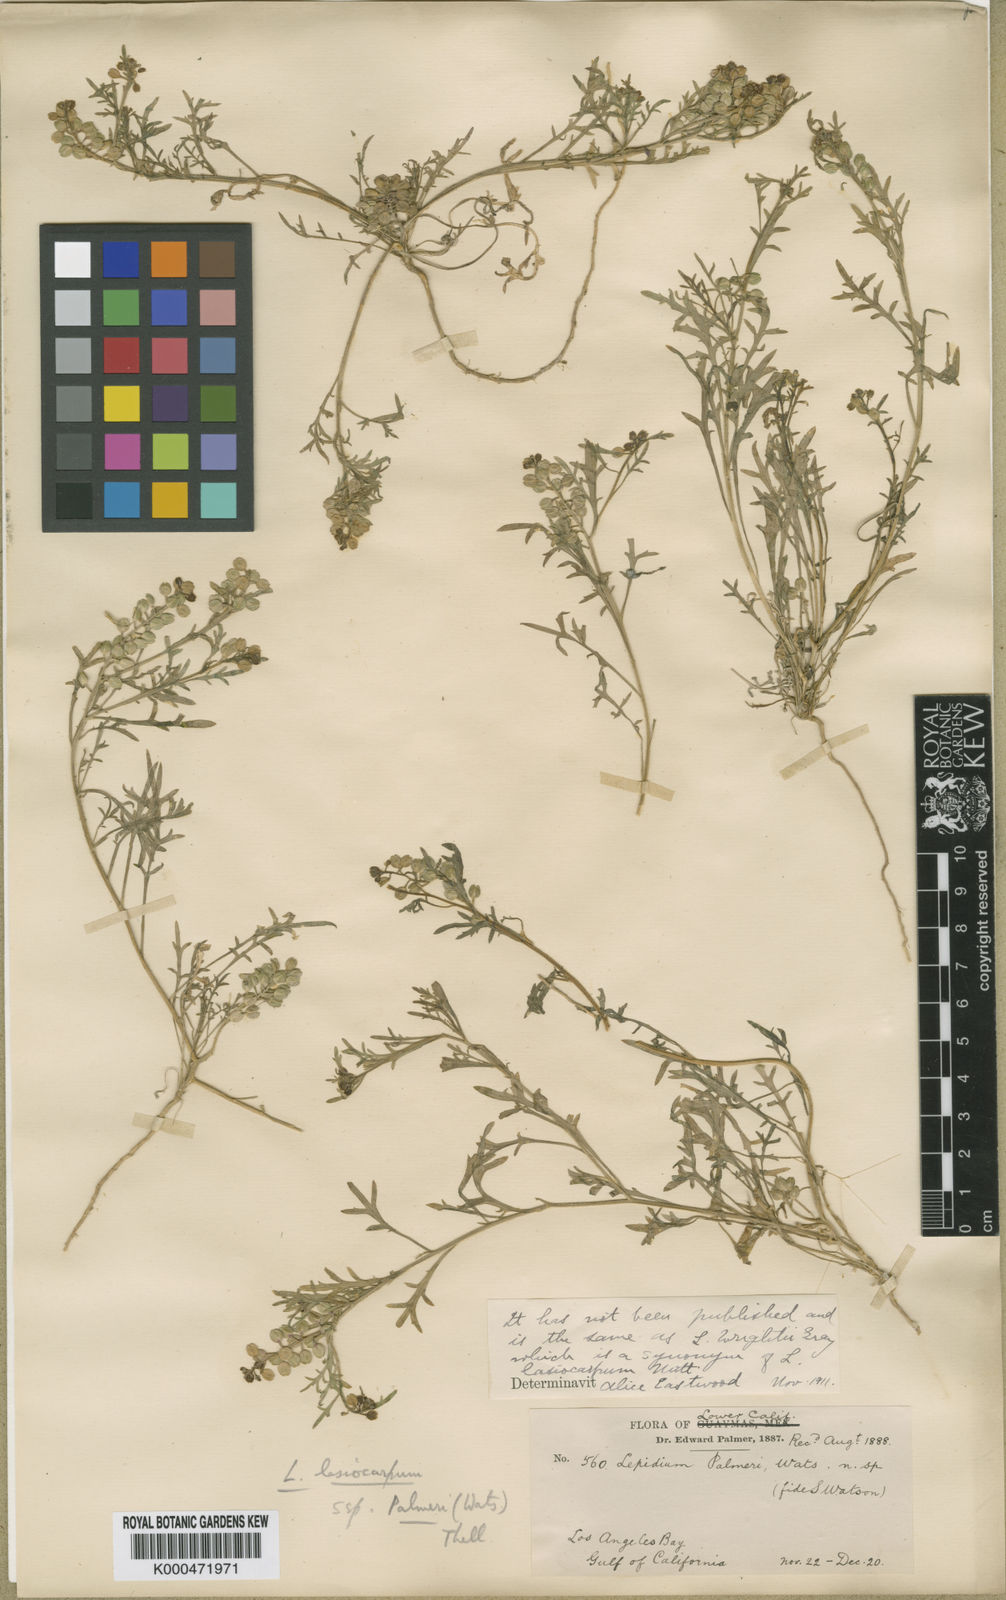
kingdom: Plantae
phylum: Tracheophyta
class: Magnoliopsida
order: Brassicales
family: Brassicaceae
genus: Lepidium
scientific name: Lepidium lasiocarpum
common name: Hairy-pod pepperwort
